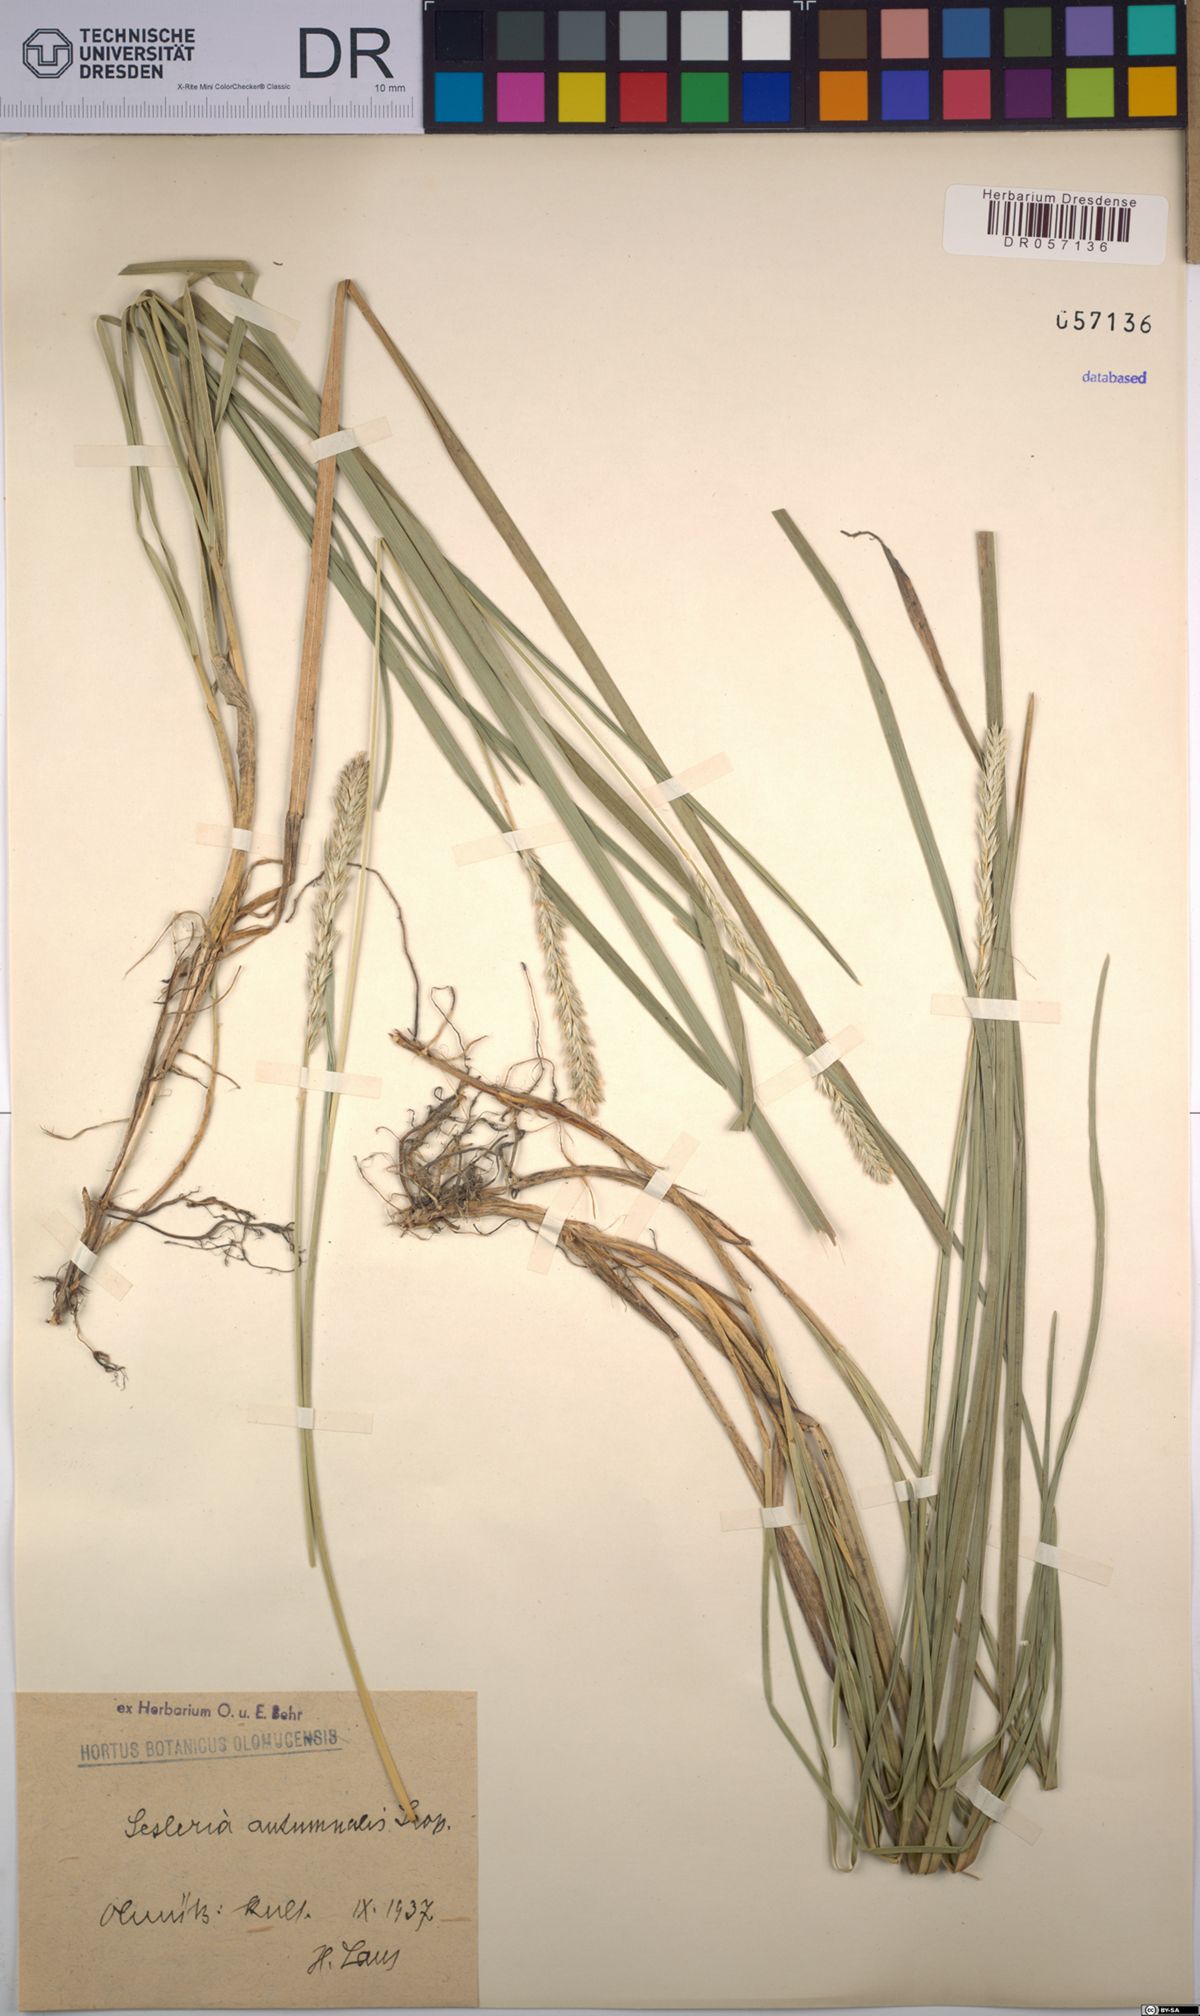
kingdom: Plantae
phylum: Tracheophyta
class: Liliopsida
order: Poales
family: Poaceae
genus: Sesleria
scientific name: Sesleria autumnalis
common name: Autumn moor grass
